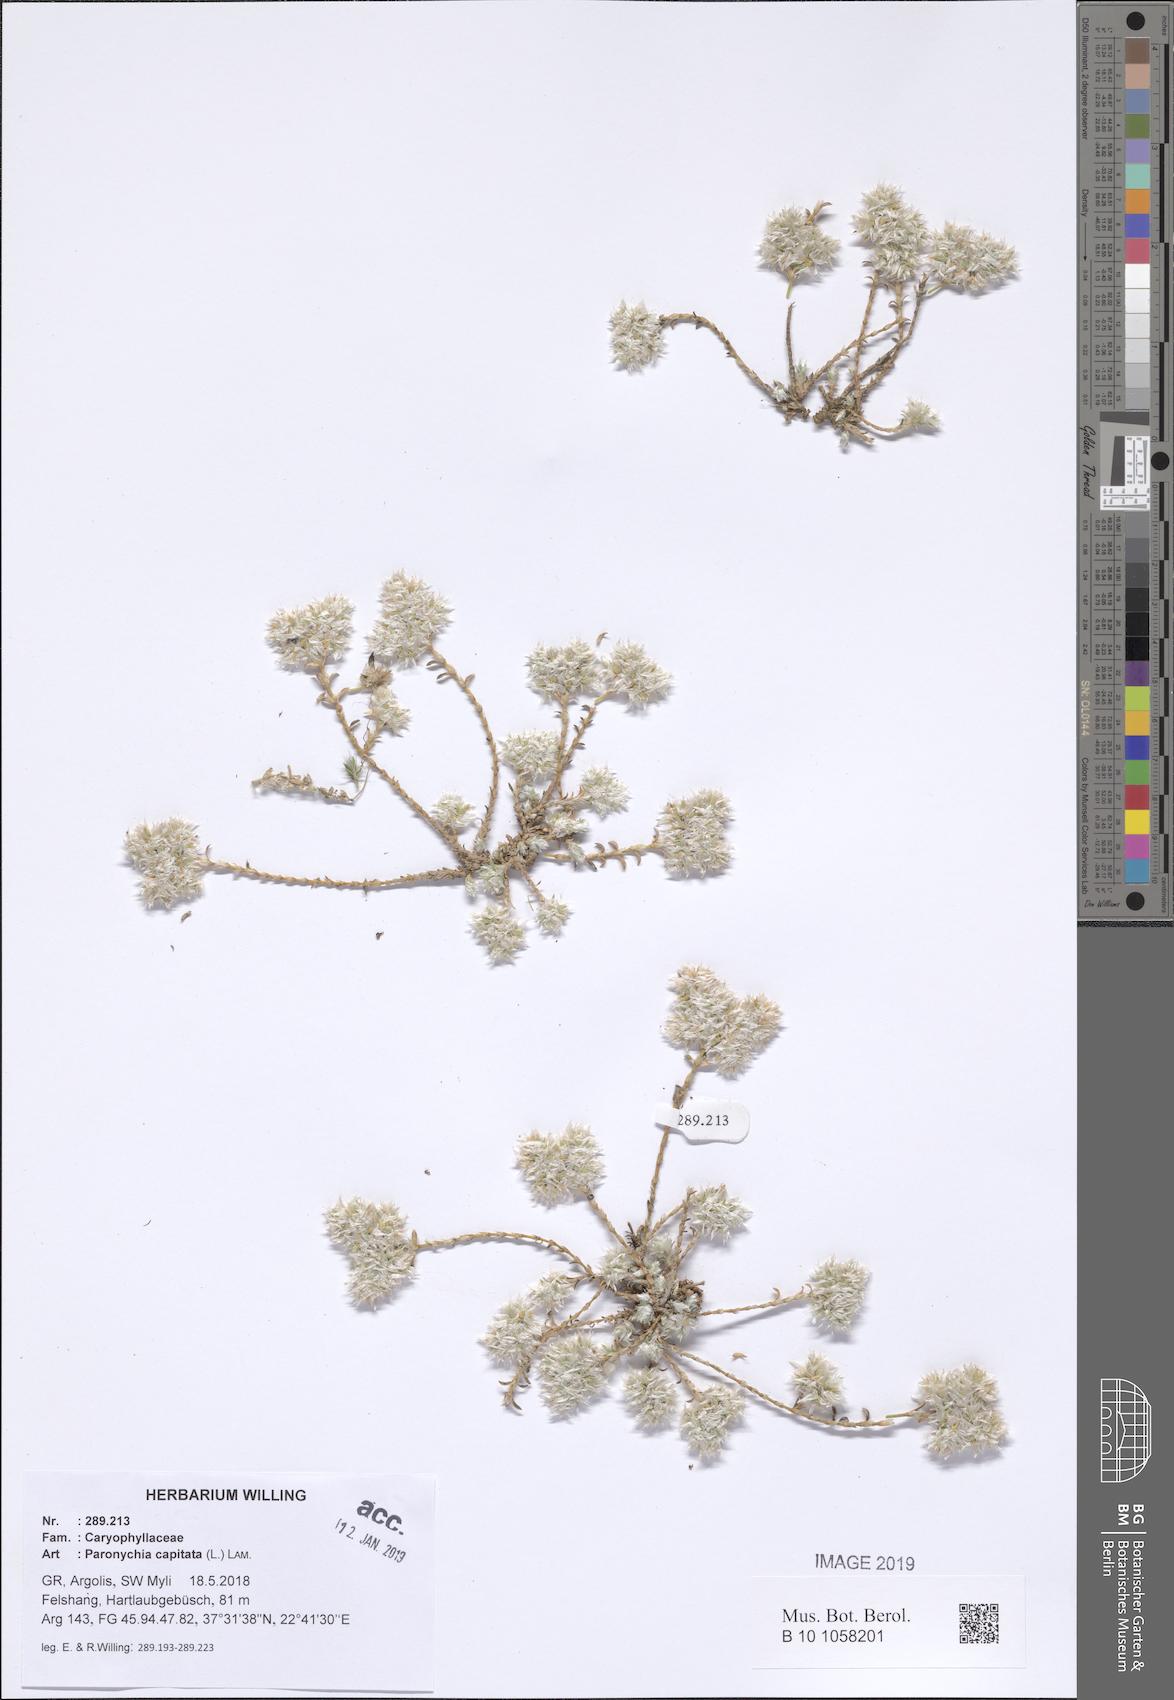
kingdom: Plantae
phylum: Tracheophyta
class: Magnoliopsida
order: Caryophyllales
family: Caryophyllaceae
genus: Paronychia
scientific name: Paronychia capitata
